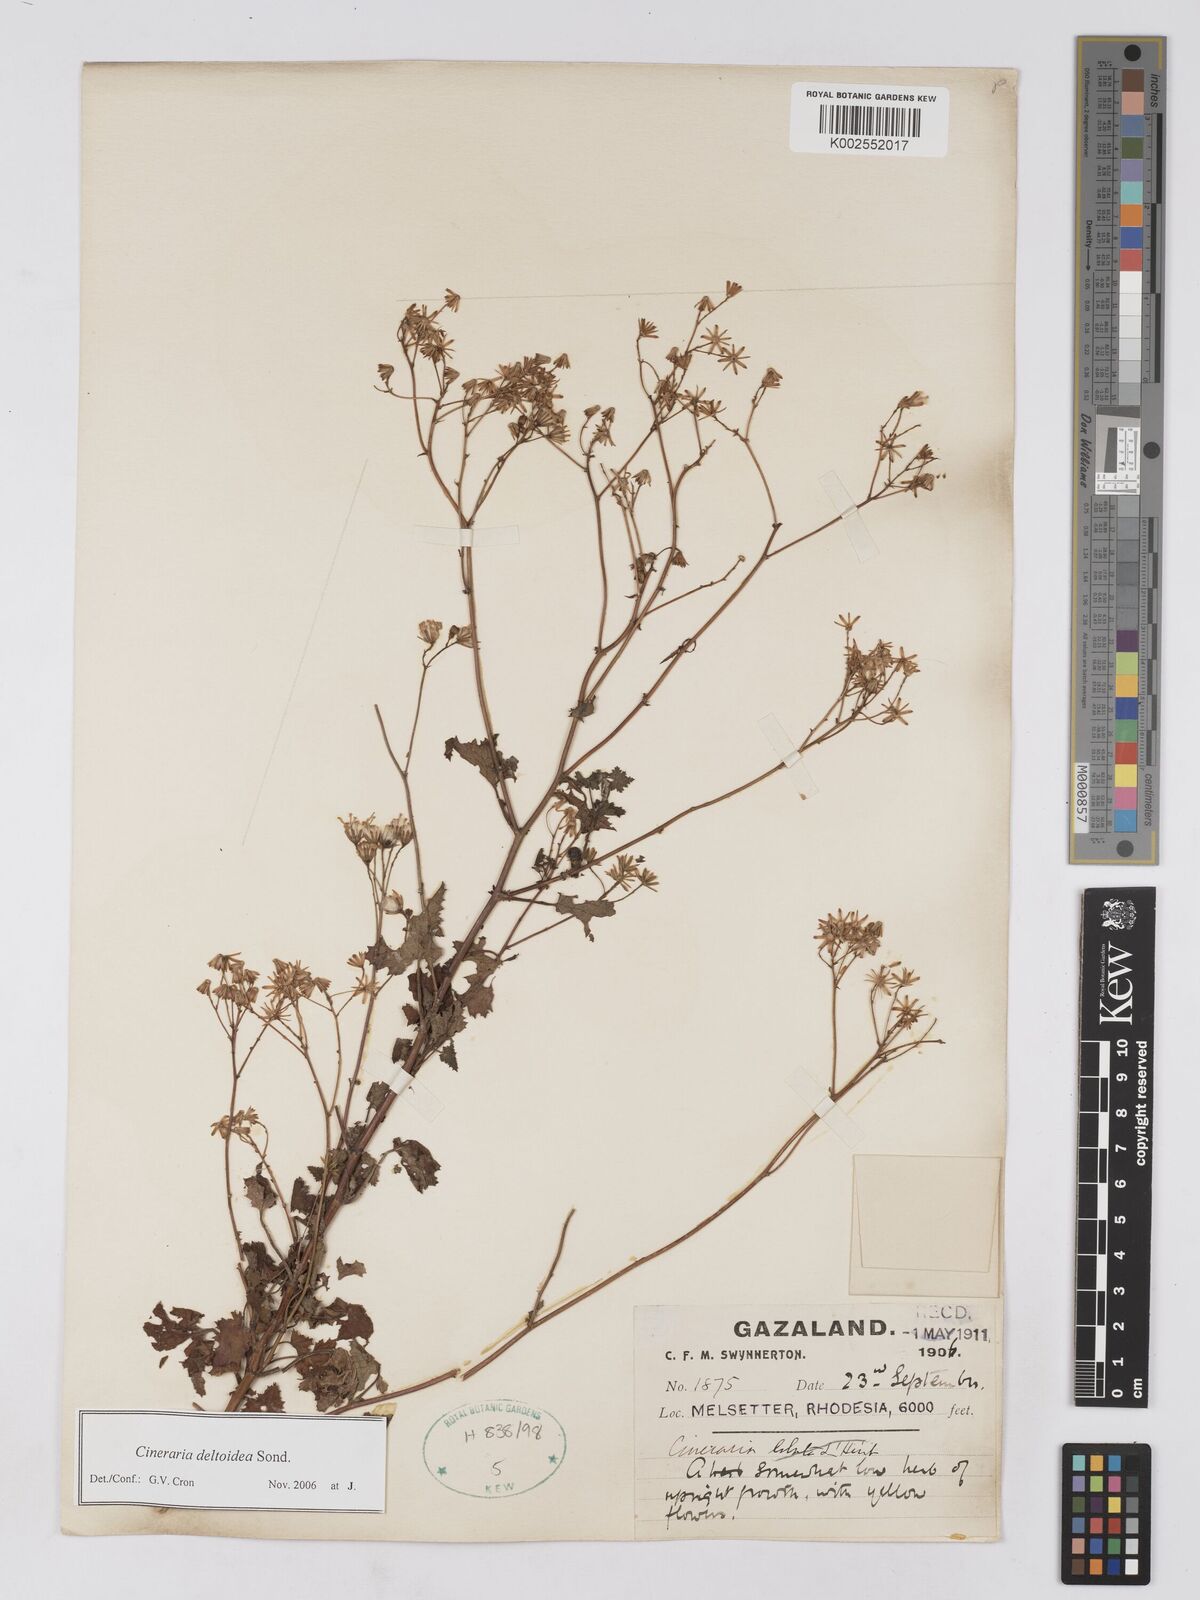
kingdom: Plantae
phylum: Tracheophyta
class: Magnoliopsida
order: Asterales
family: Asteraceae
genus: Cineraria
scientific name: Cineraria deltoidea
